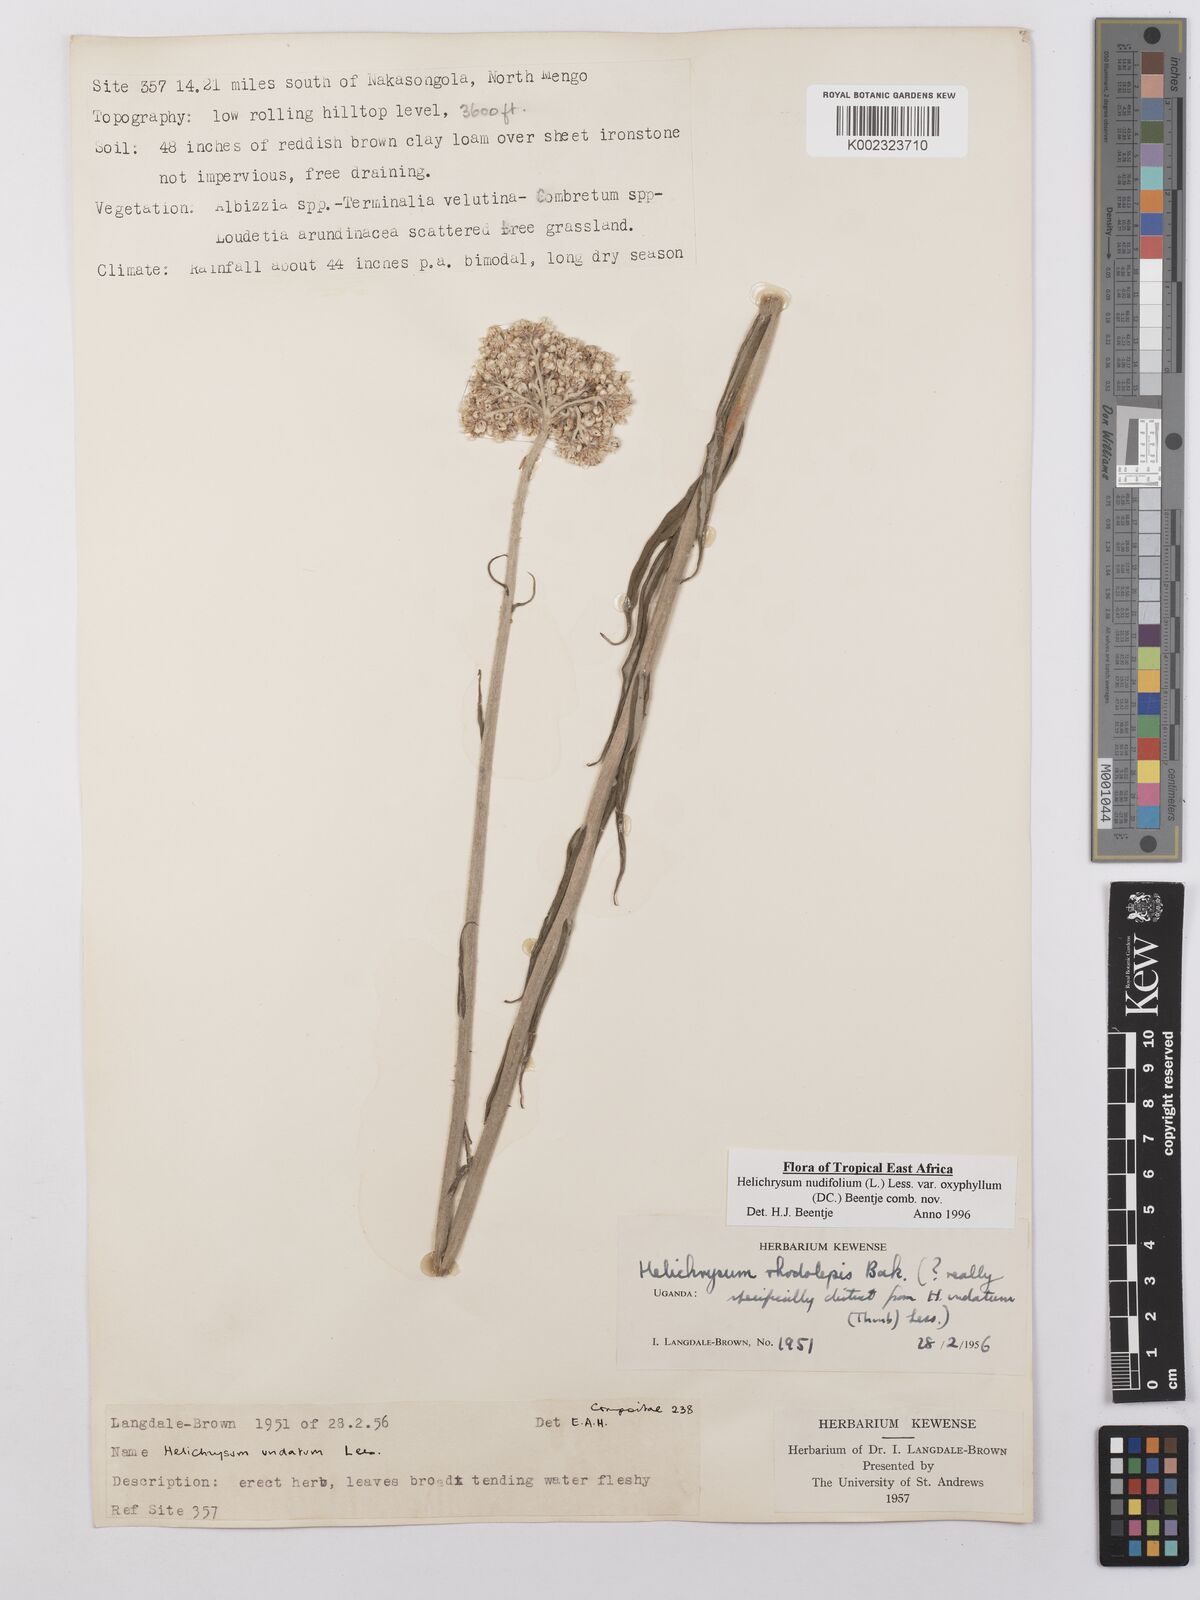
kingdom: Plantae
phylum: Tracheophyta
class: Magnoliopsida
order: Asterales
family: Asteraceae
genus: Helichrysum
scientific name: Helichrysum nudifolium
